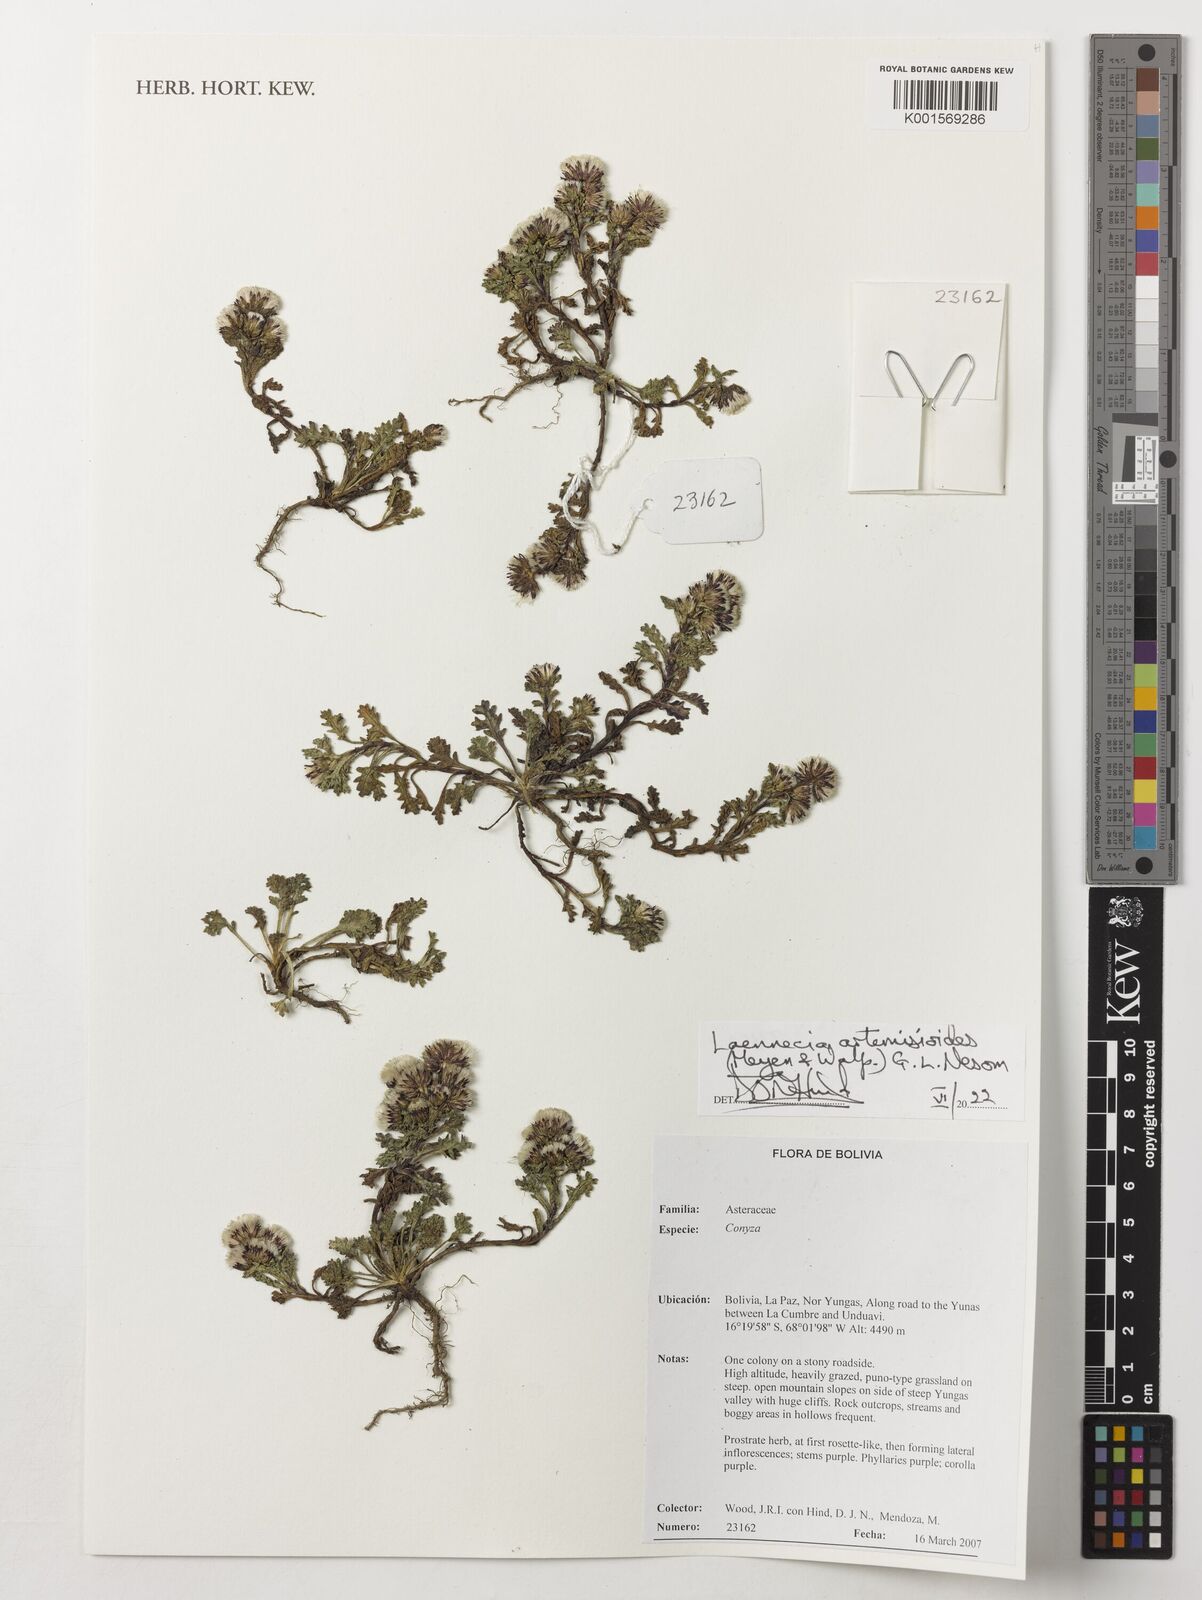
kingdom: Plantae
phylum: Tracheophyta
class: Magnoliopsida
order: Asterales
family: Asteraceae
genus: Laennecia
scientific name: Laennecia artemisiifolia
